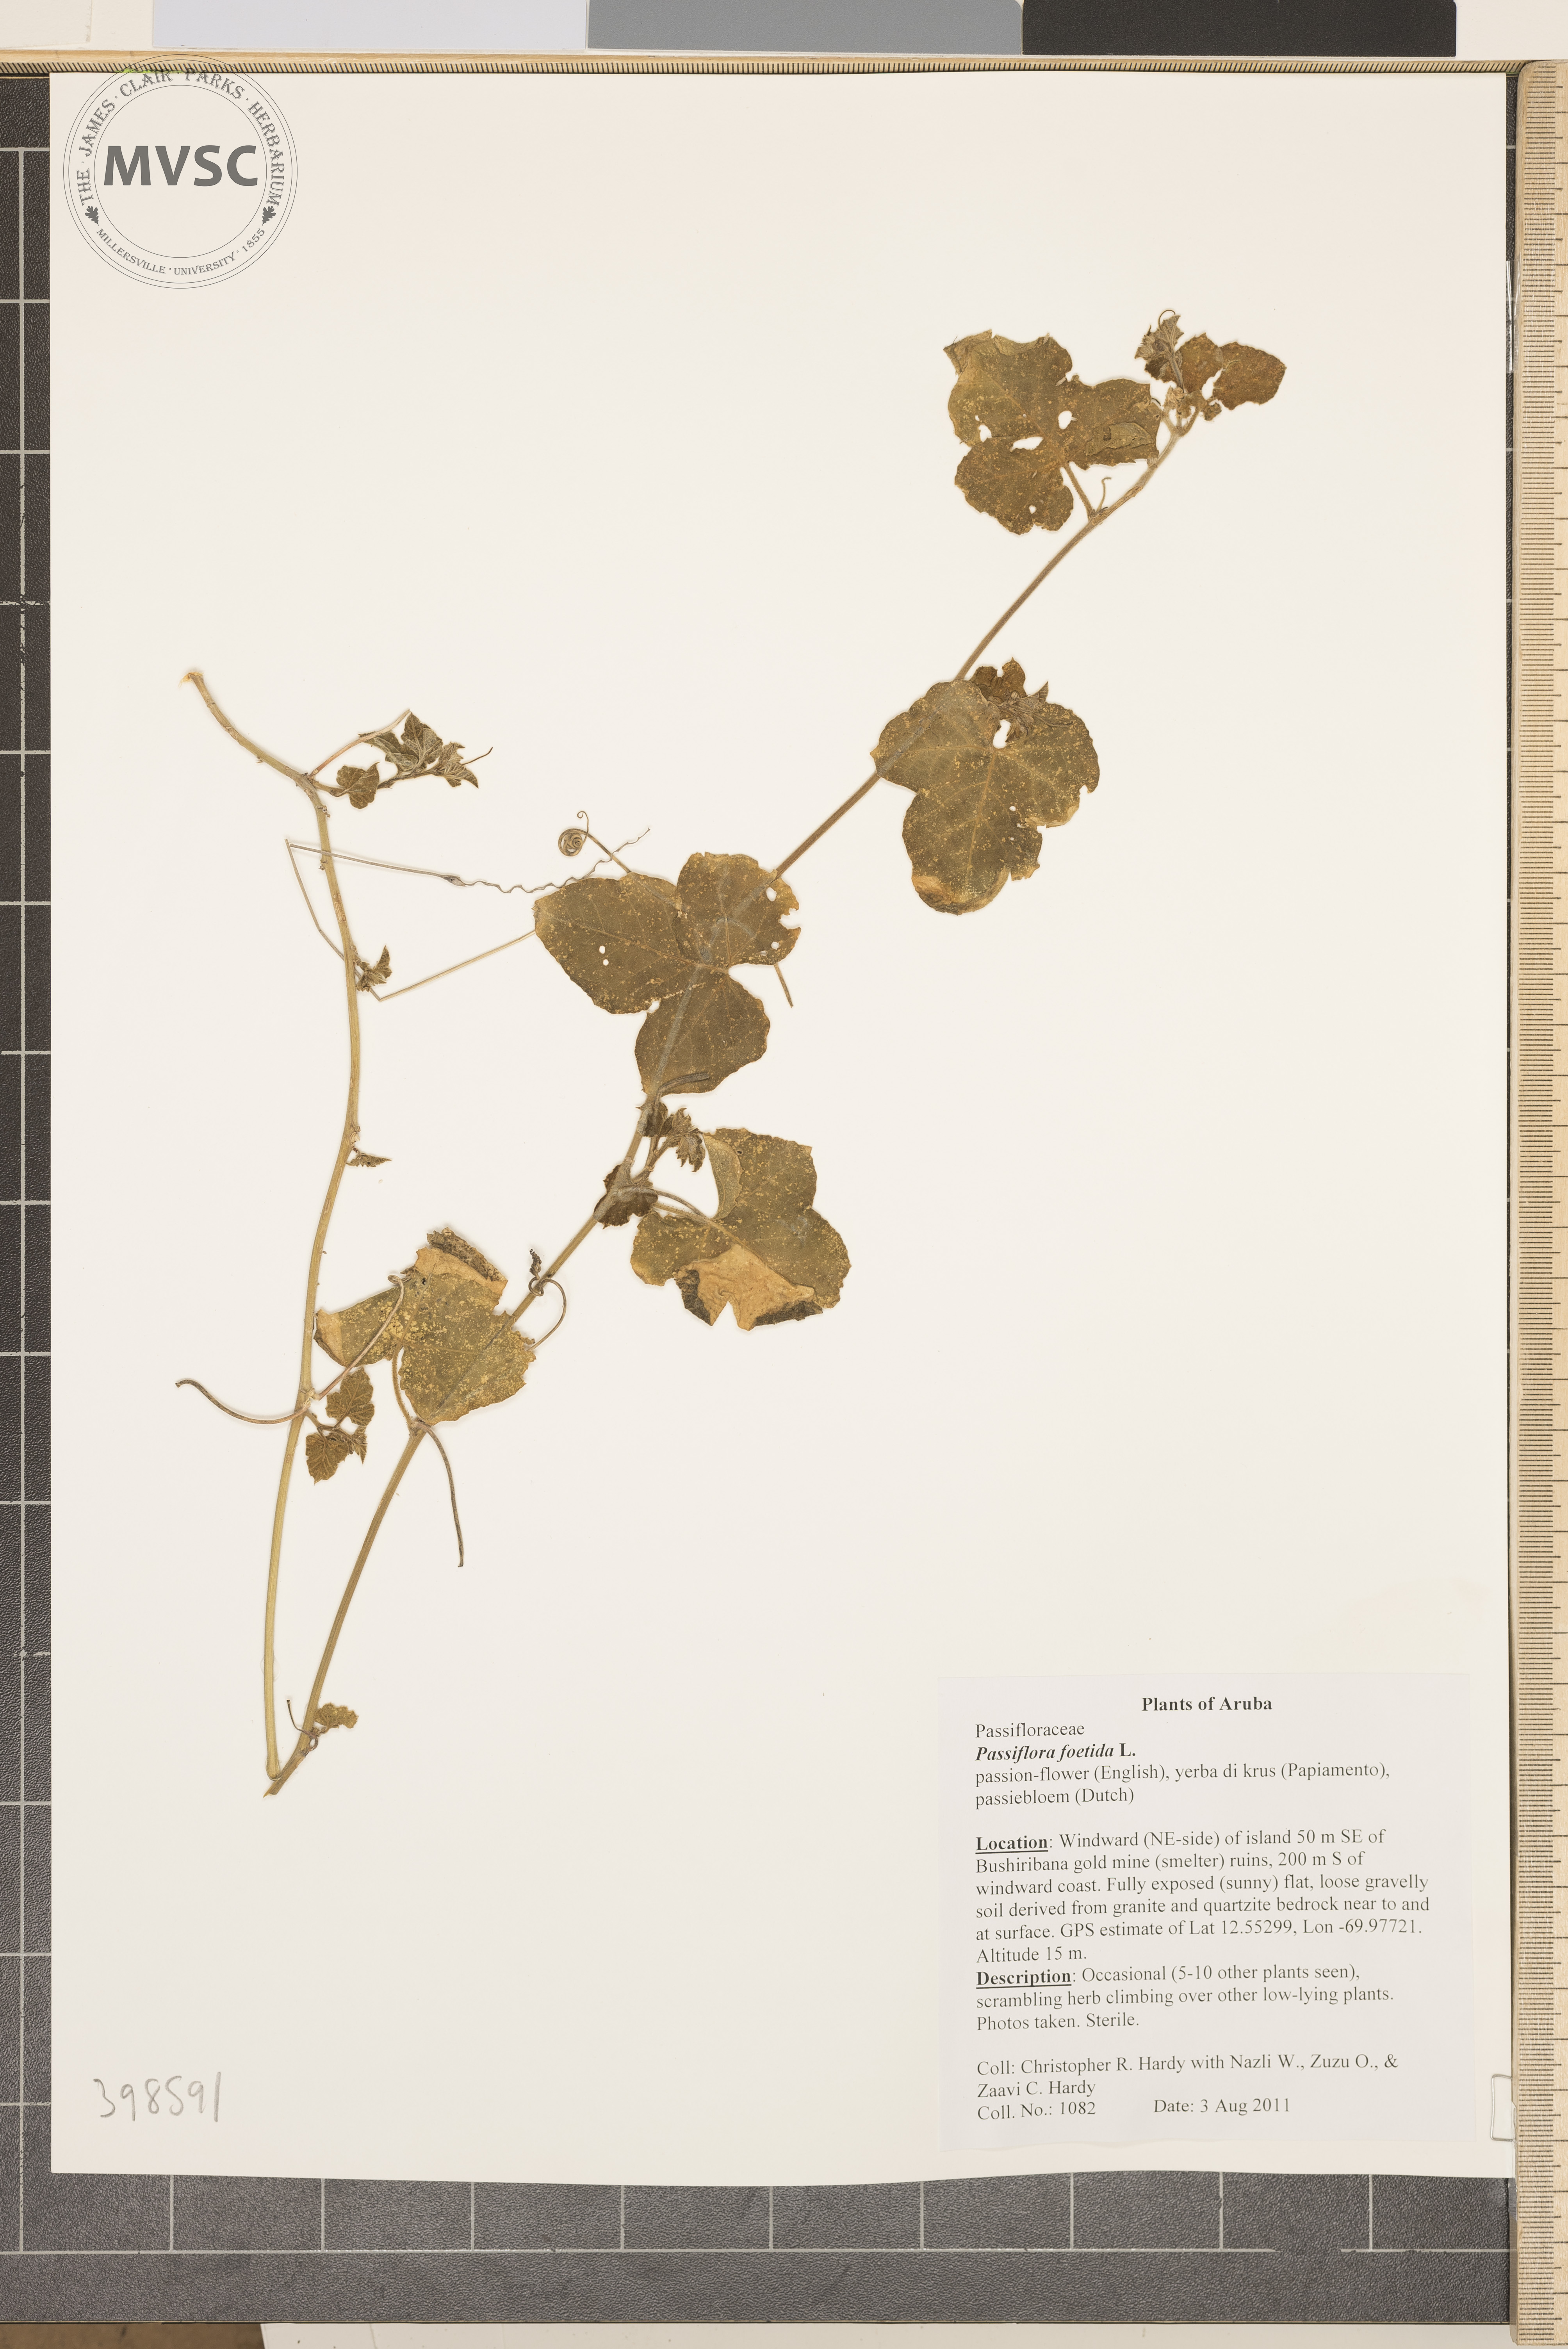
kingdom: Plantae
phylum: Tracheophyta
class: Magnoliopsida
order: Malpighiales
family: Passifloraceae
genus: Passiflora
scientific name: Passiflora foetida
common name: passion flower
